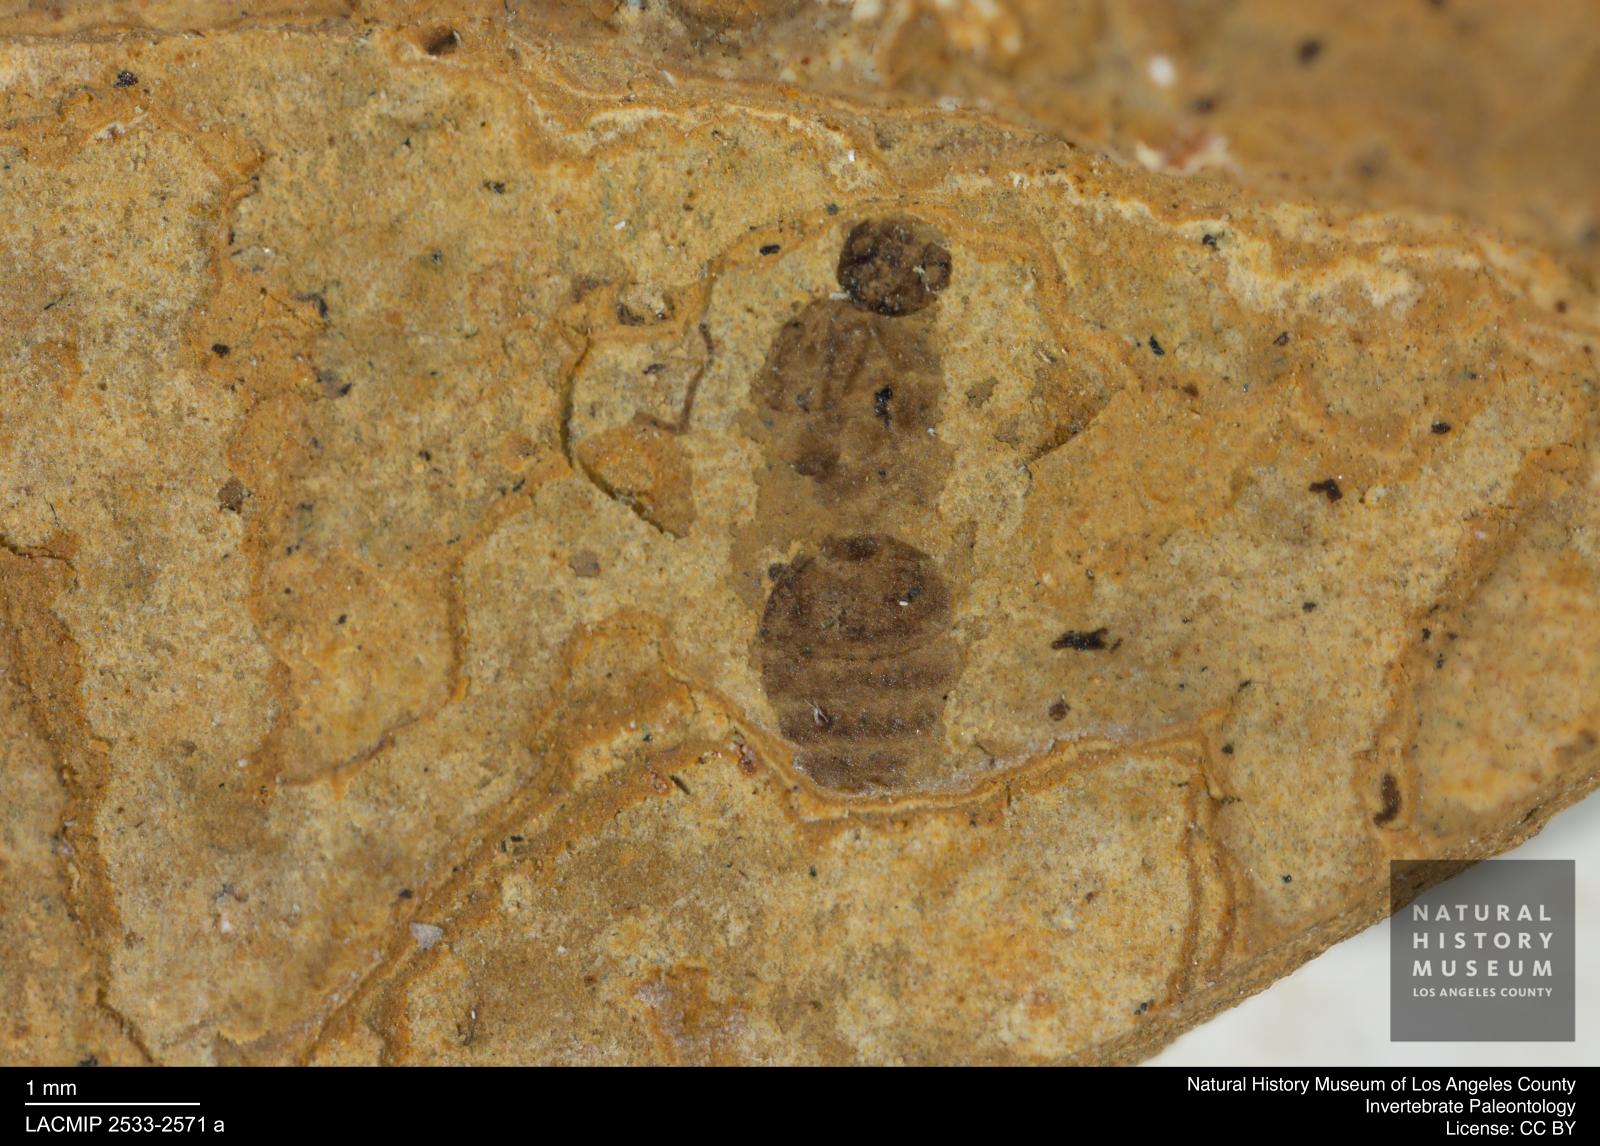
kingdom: Animalia
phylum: Arthropoda
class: Insecta
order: Hymenoptera
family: Formicidae
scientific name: Formicidae
